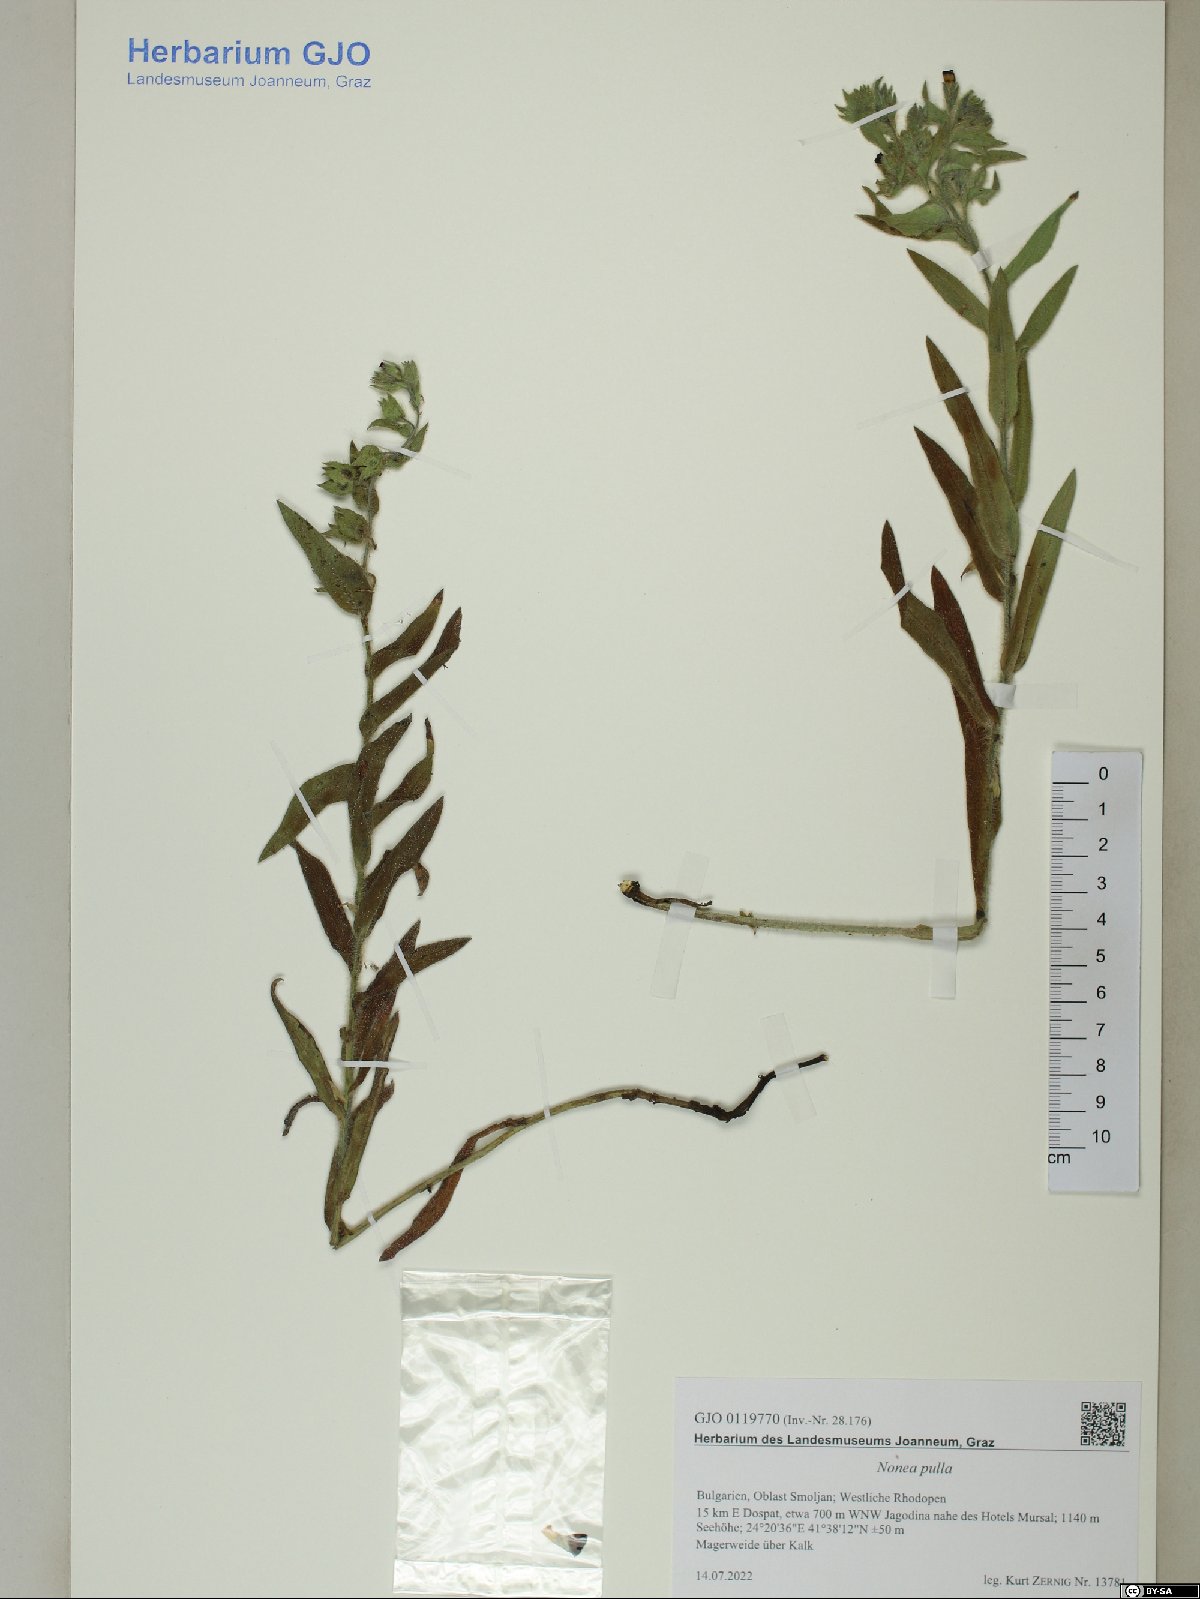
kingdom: Plantae
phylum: Tracheophyta
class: Magnoliopsida
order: Boraginales
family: Boraginaceae
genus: Nonea
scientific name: Nonea pulla
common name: Brown nonea
